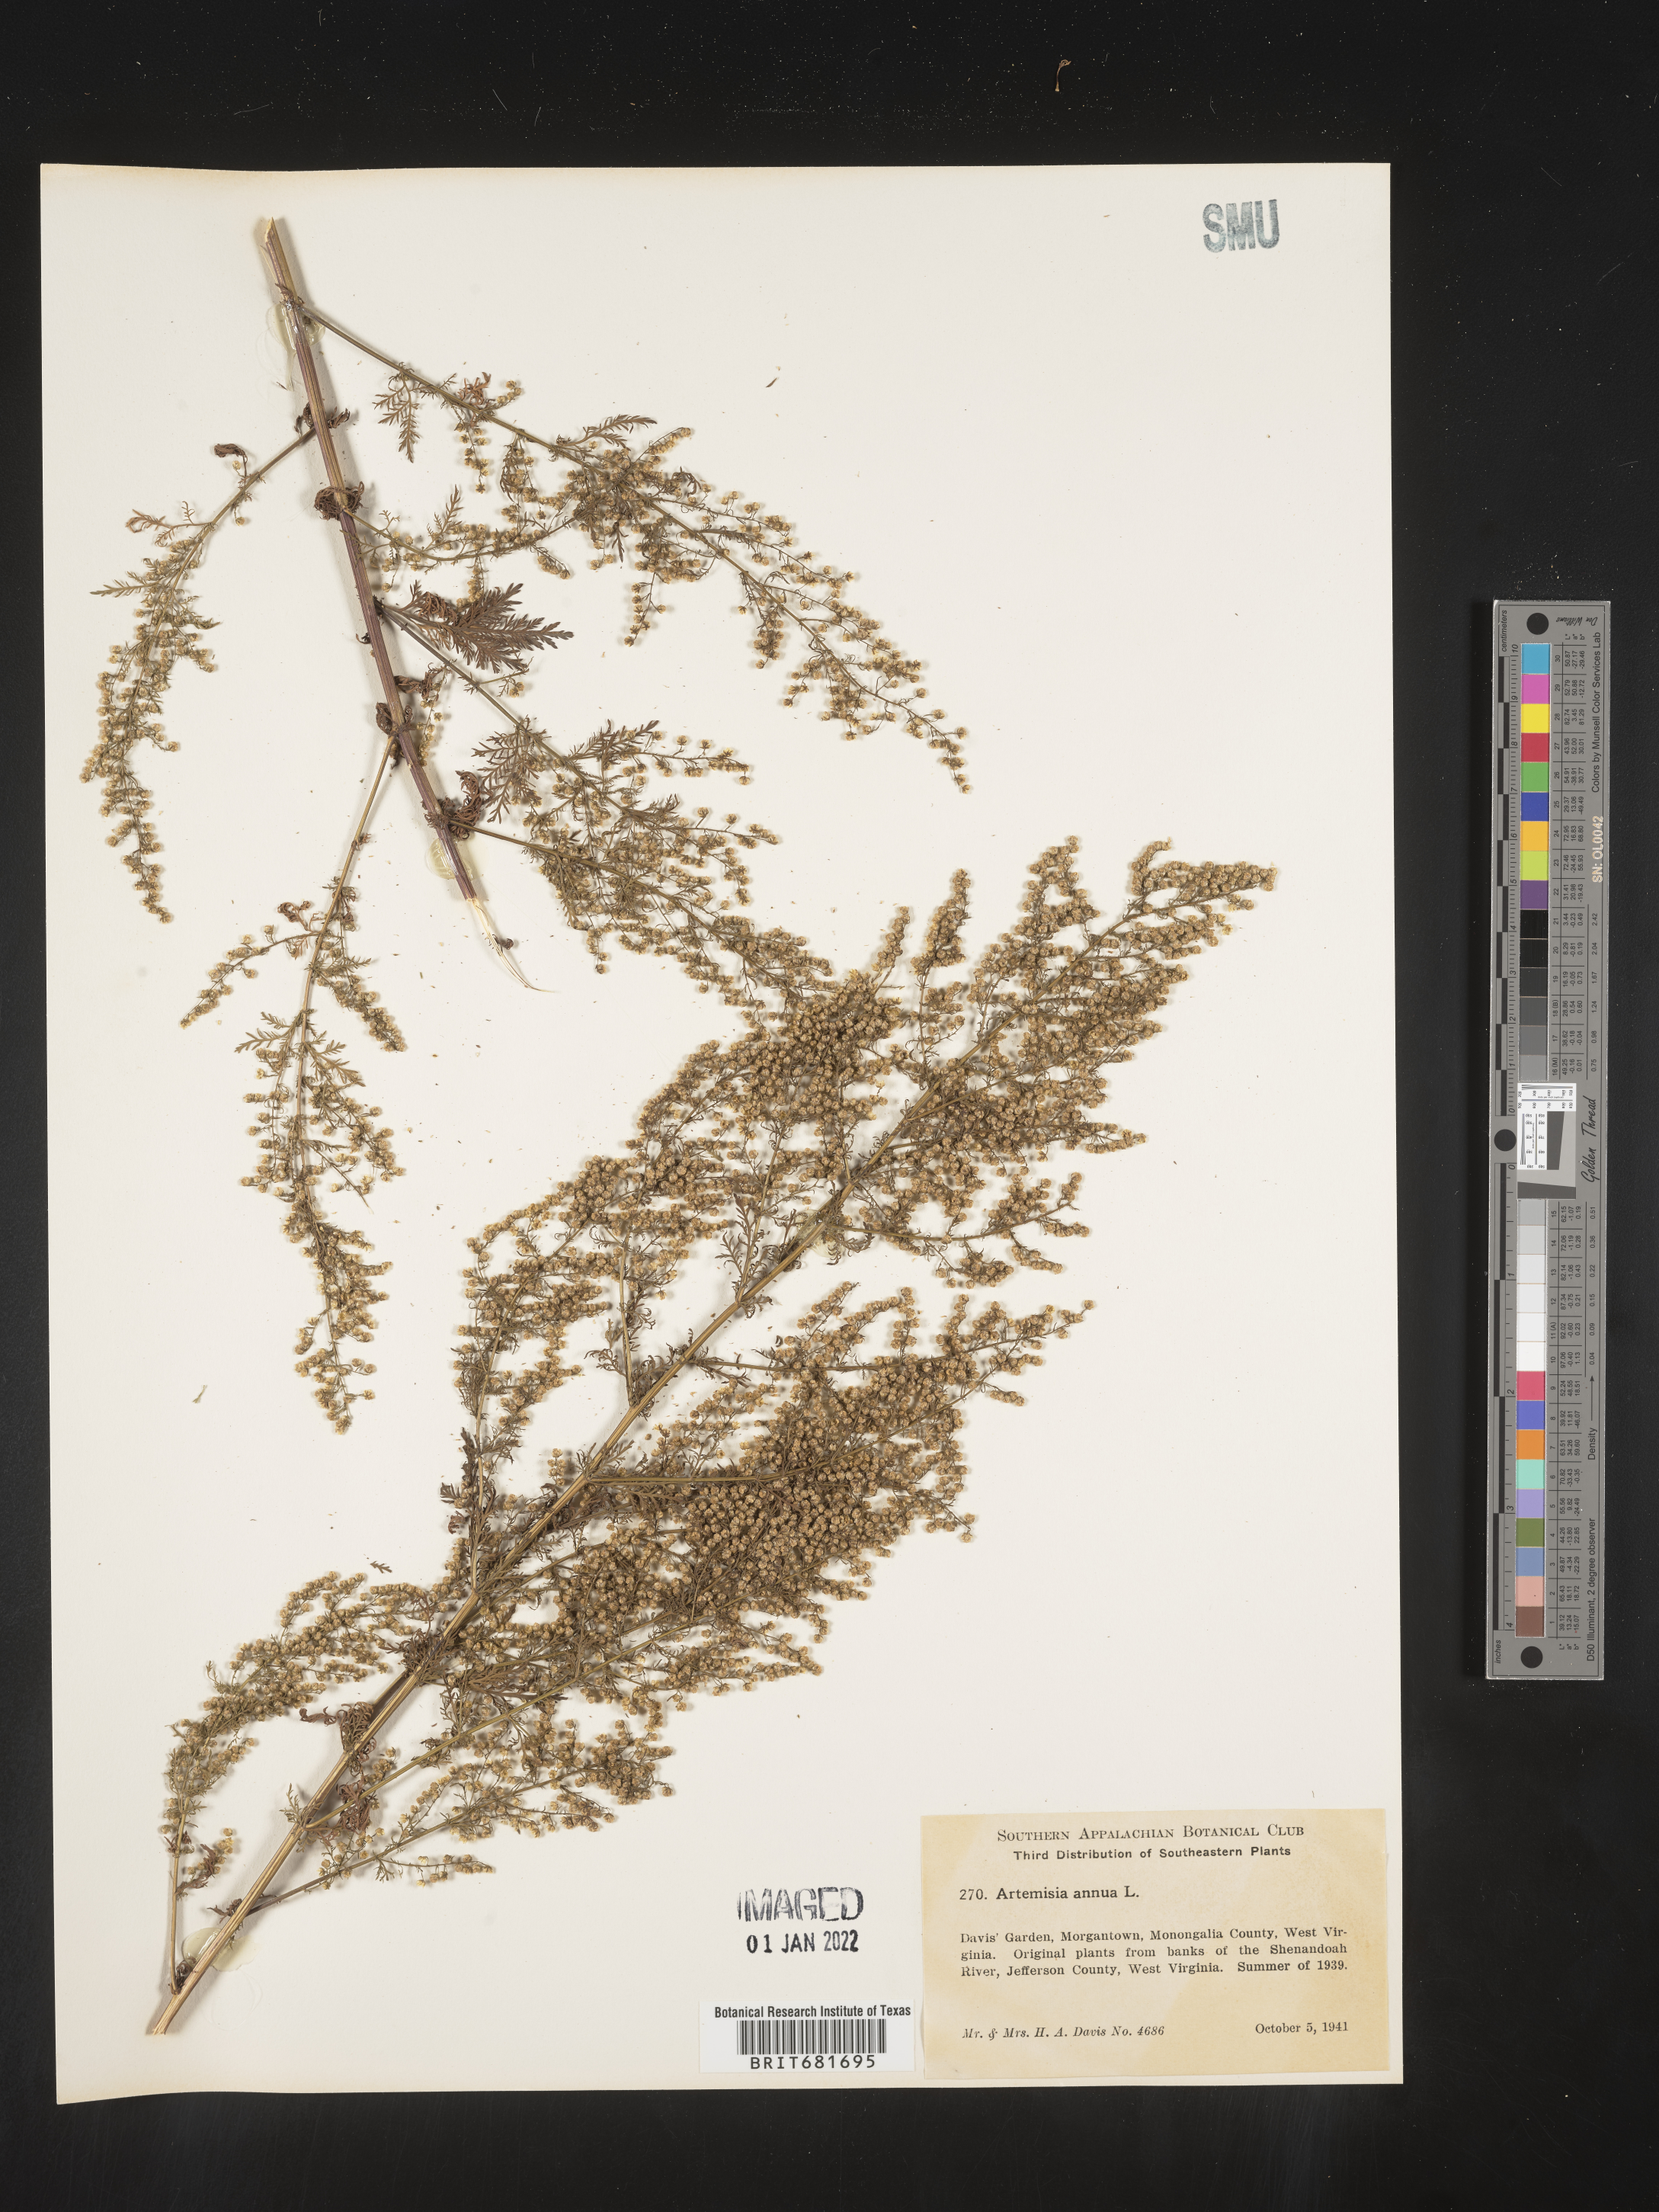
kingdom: Plantae
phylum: Tracheophyta
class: Magnoliopsida
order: Asterales
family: Asteraceae
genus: Artemisia
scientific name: Artemisia annua
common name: Sweet sagewort
